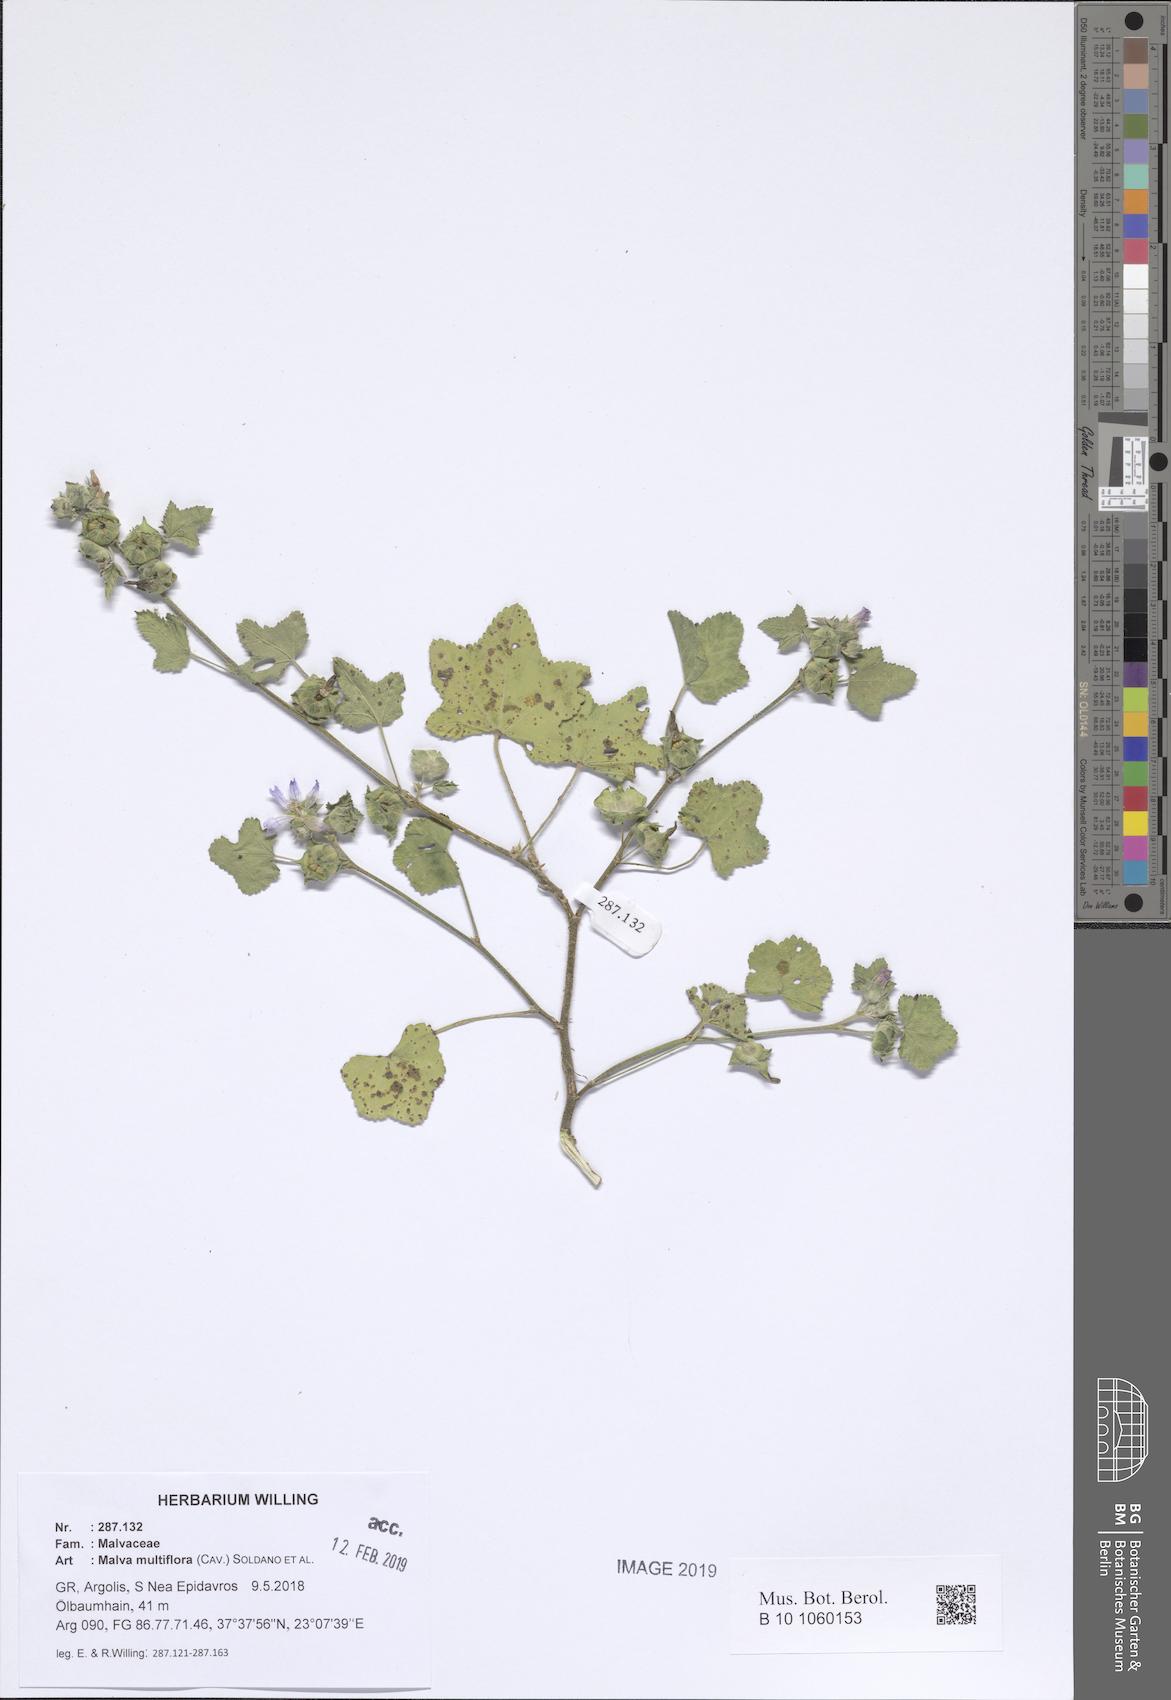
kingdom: Plantae
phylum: Tracheophyta
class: Magnoliopsida
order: Malvales
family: Malvaceae
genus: Malva
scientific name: Malva multiflora
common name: Cheeseweed
